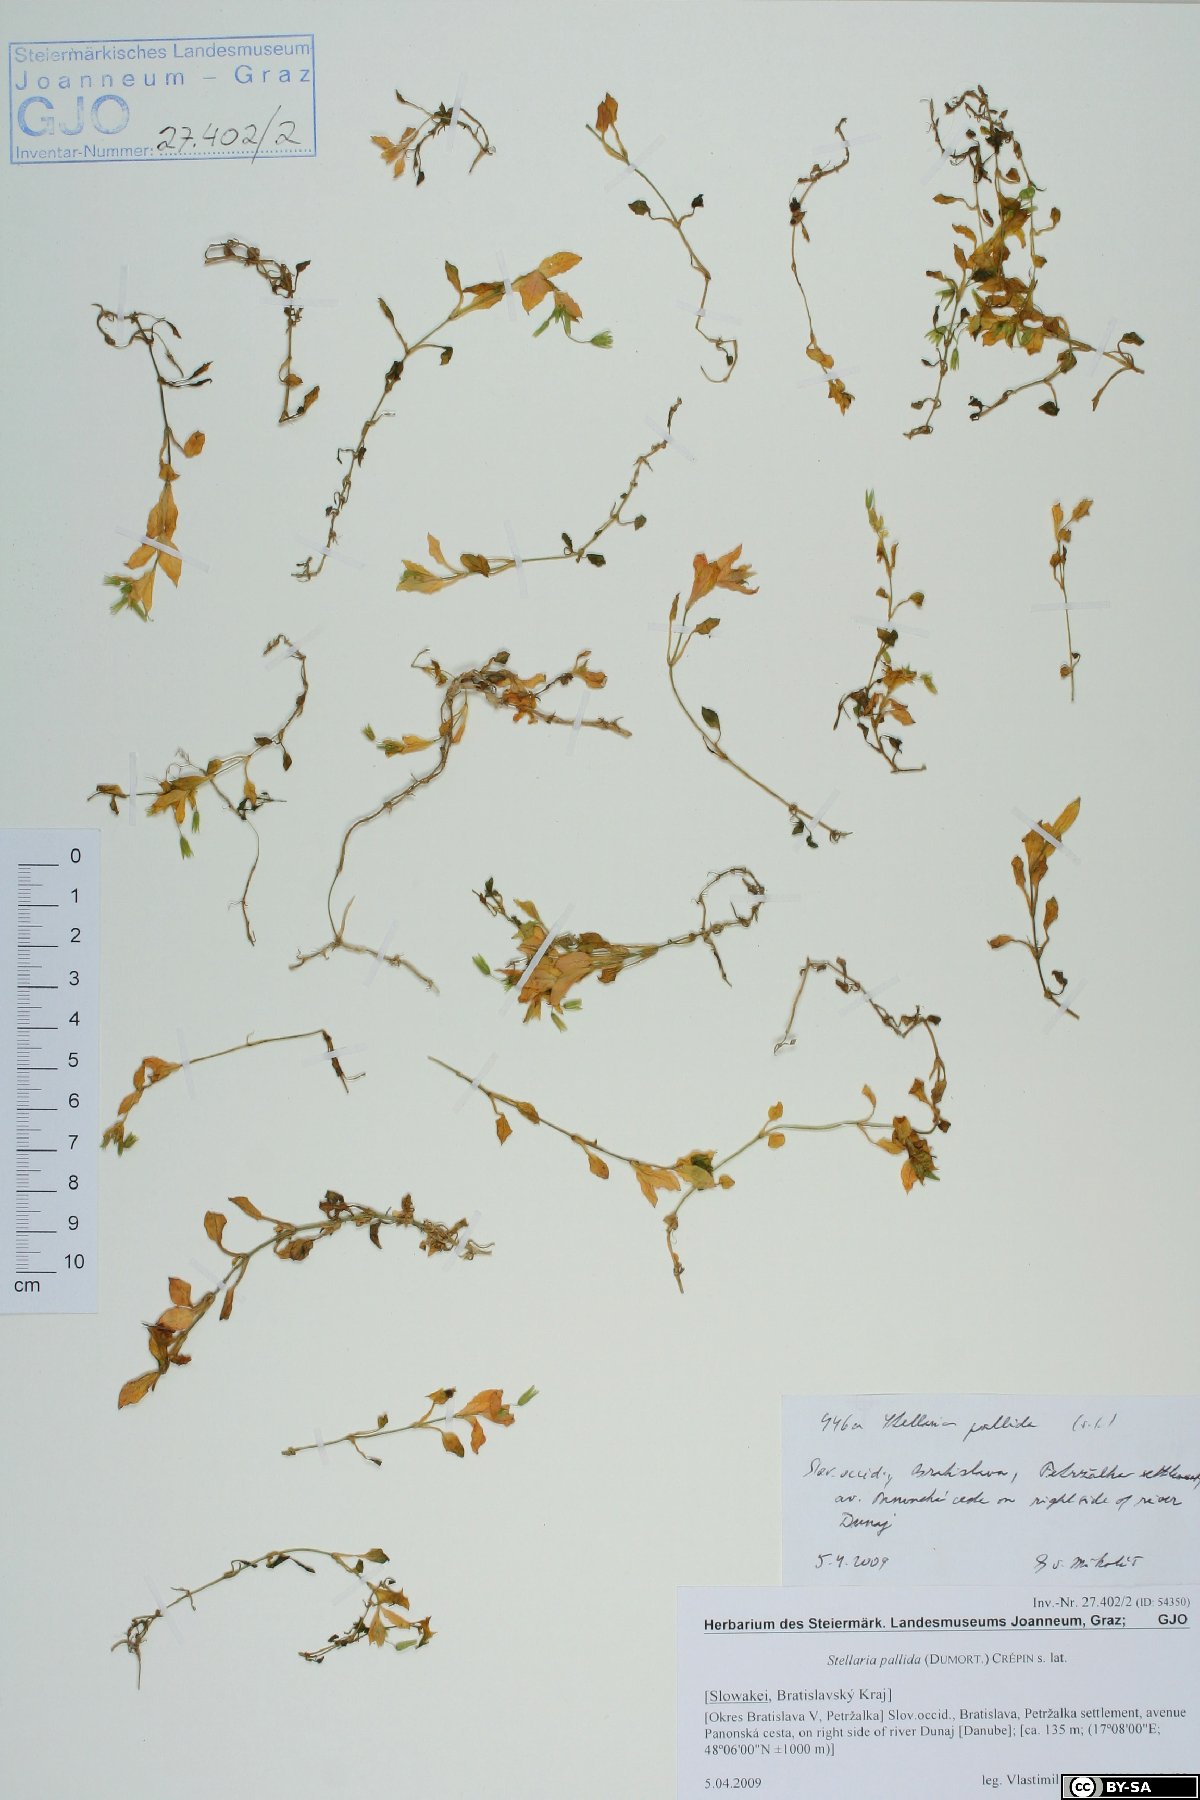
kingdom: Plantae
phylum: Tracheophyta
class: Magnoliopsida
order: Caryophyllales
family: Caryophyllaceae
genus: Stellaria
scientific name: Stellaria apetala
